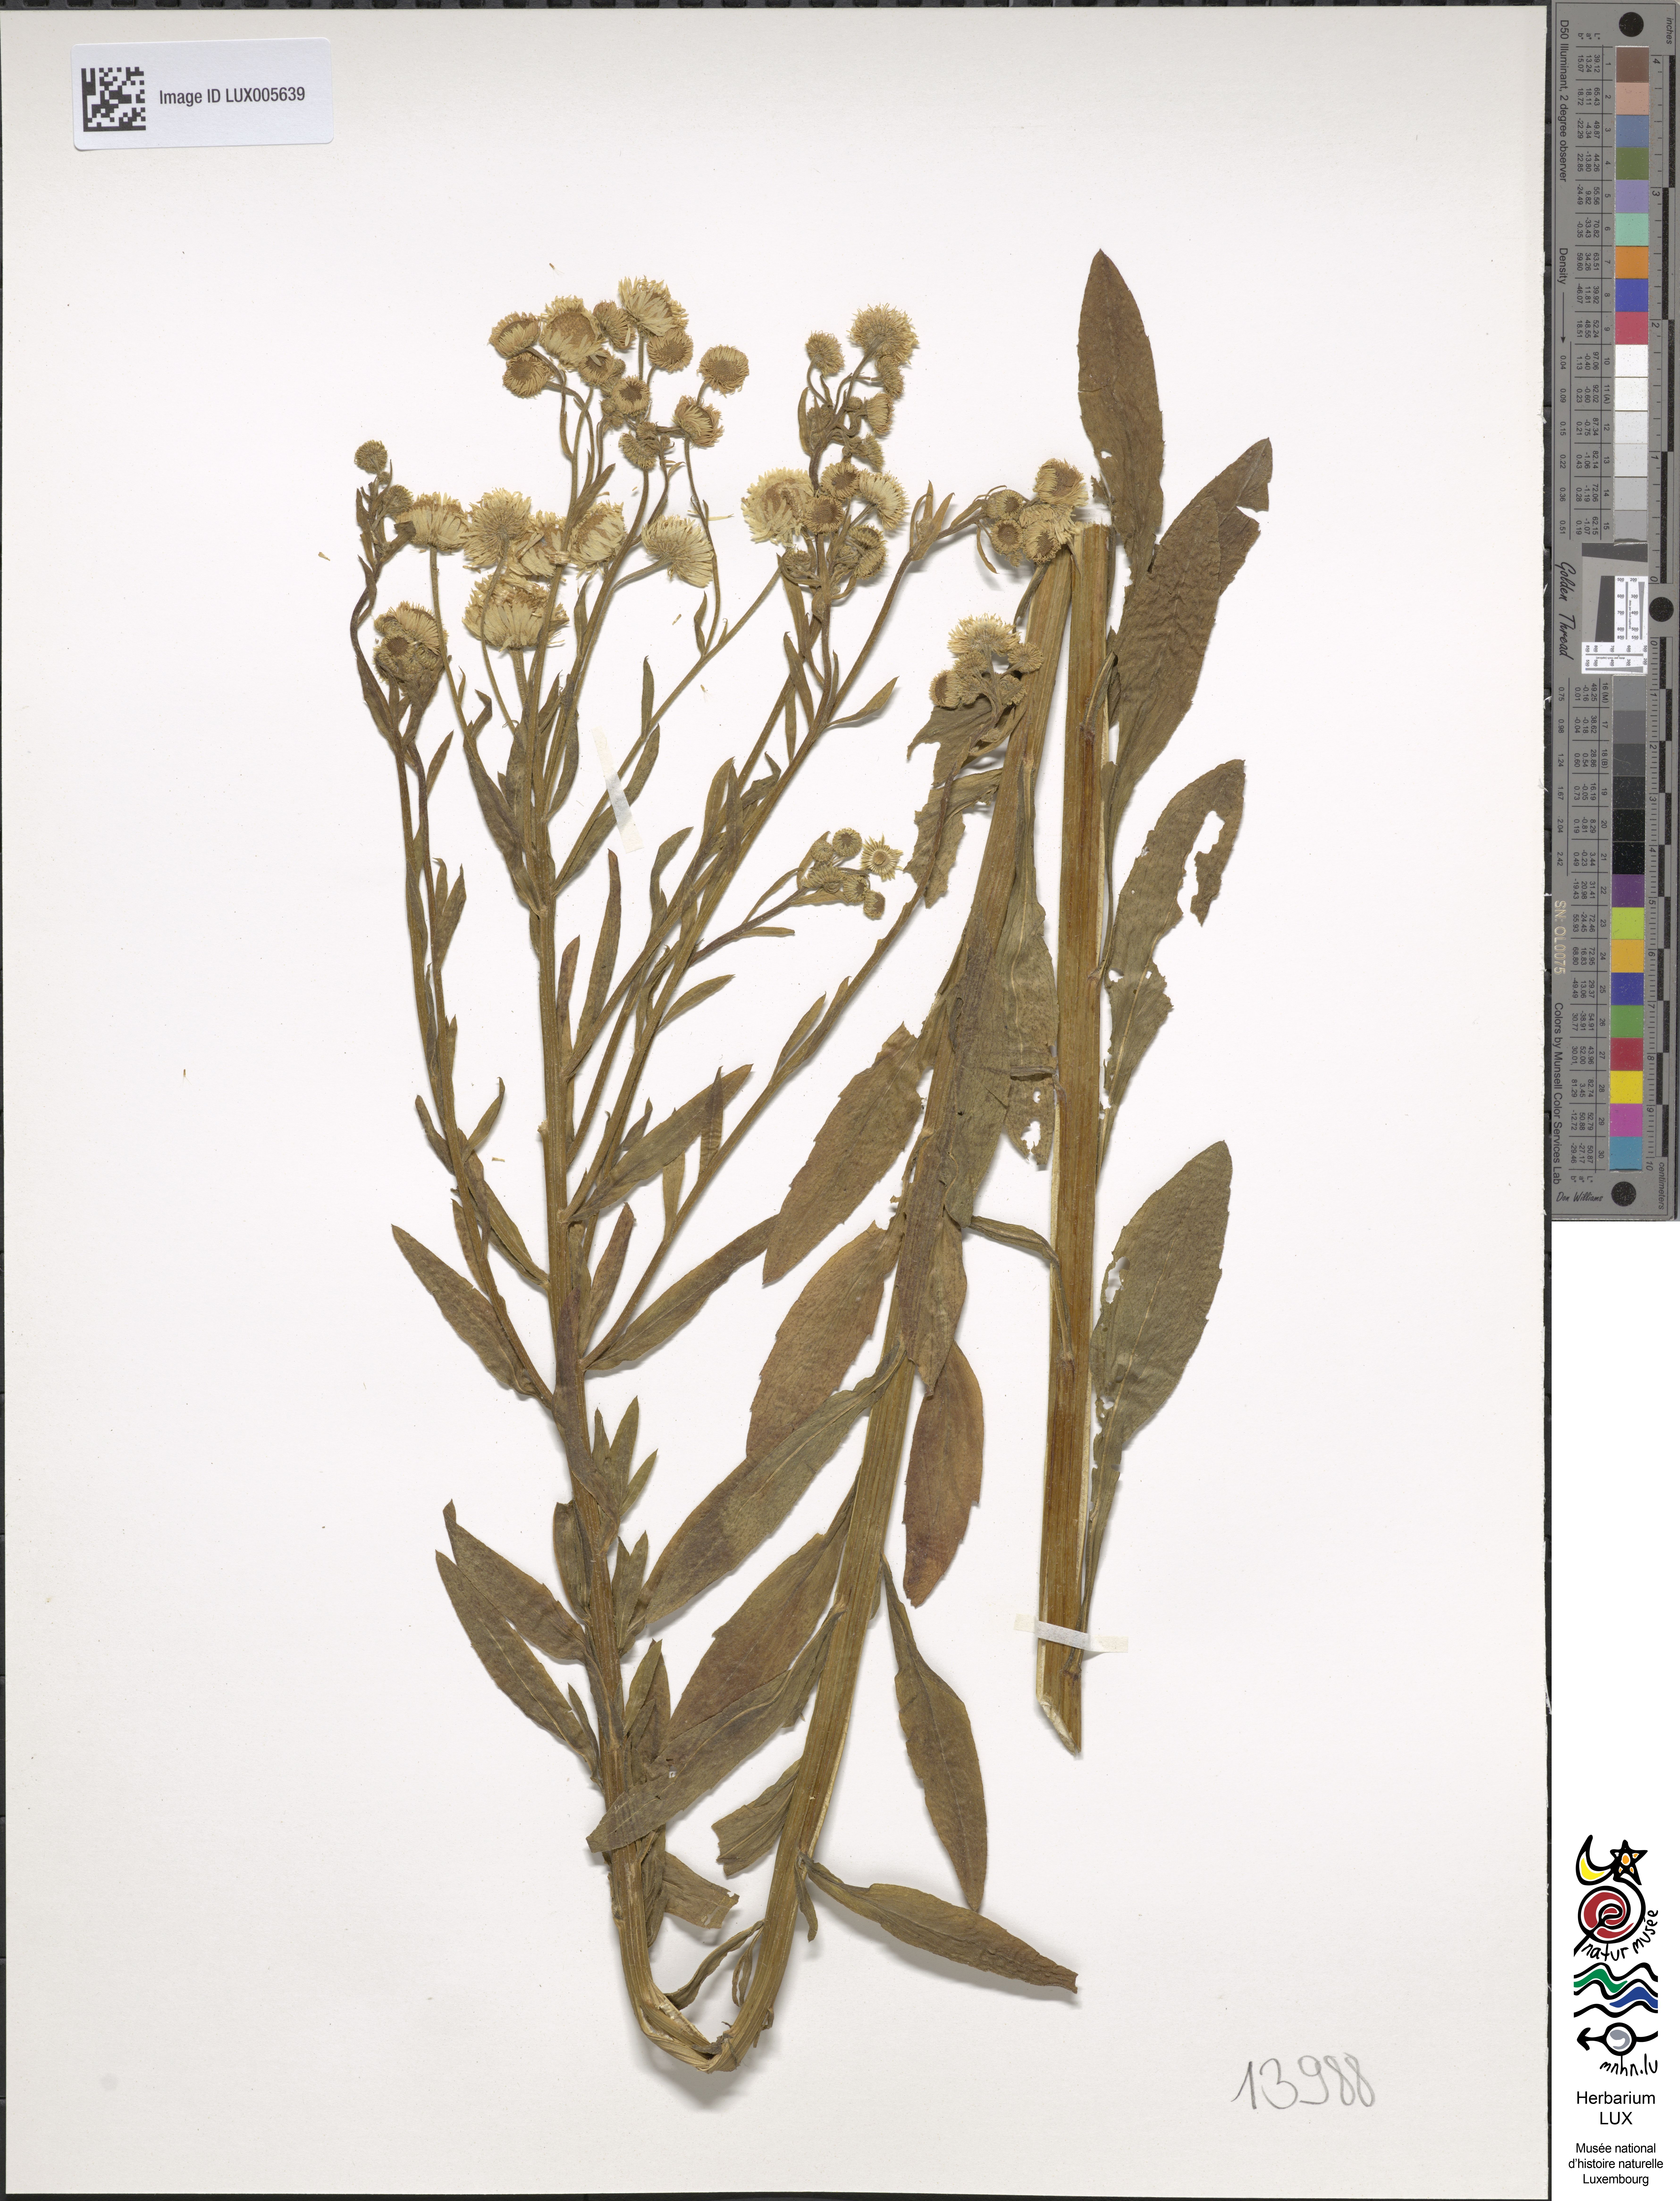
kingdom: Plantae
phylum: Tracheophyta
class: Magnoliopsida
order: Asterales
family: Asteraceae
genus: Erigeron
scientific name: Erigeron annuus
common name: Tall fleabane
